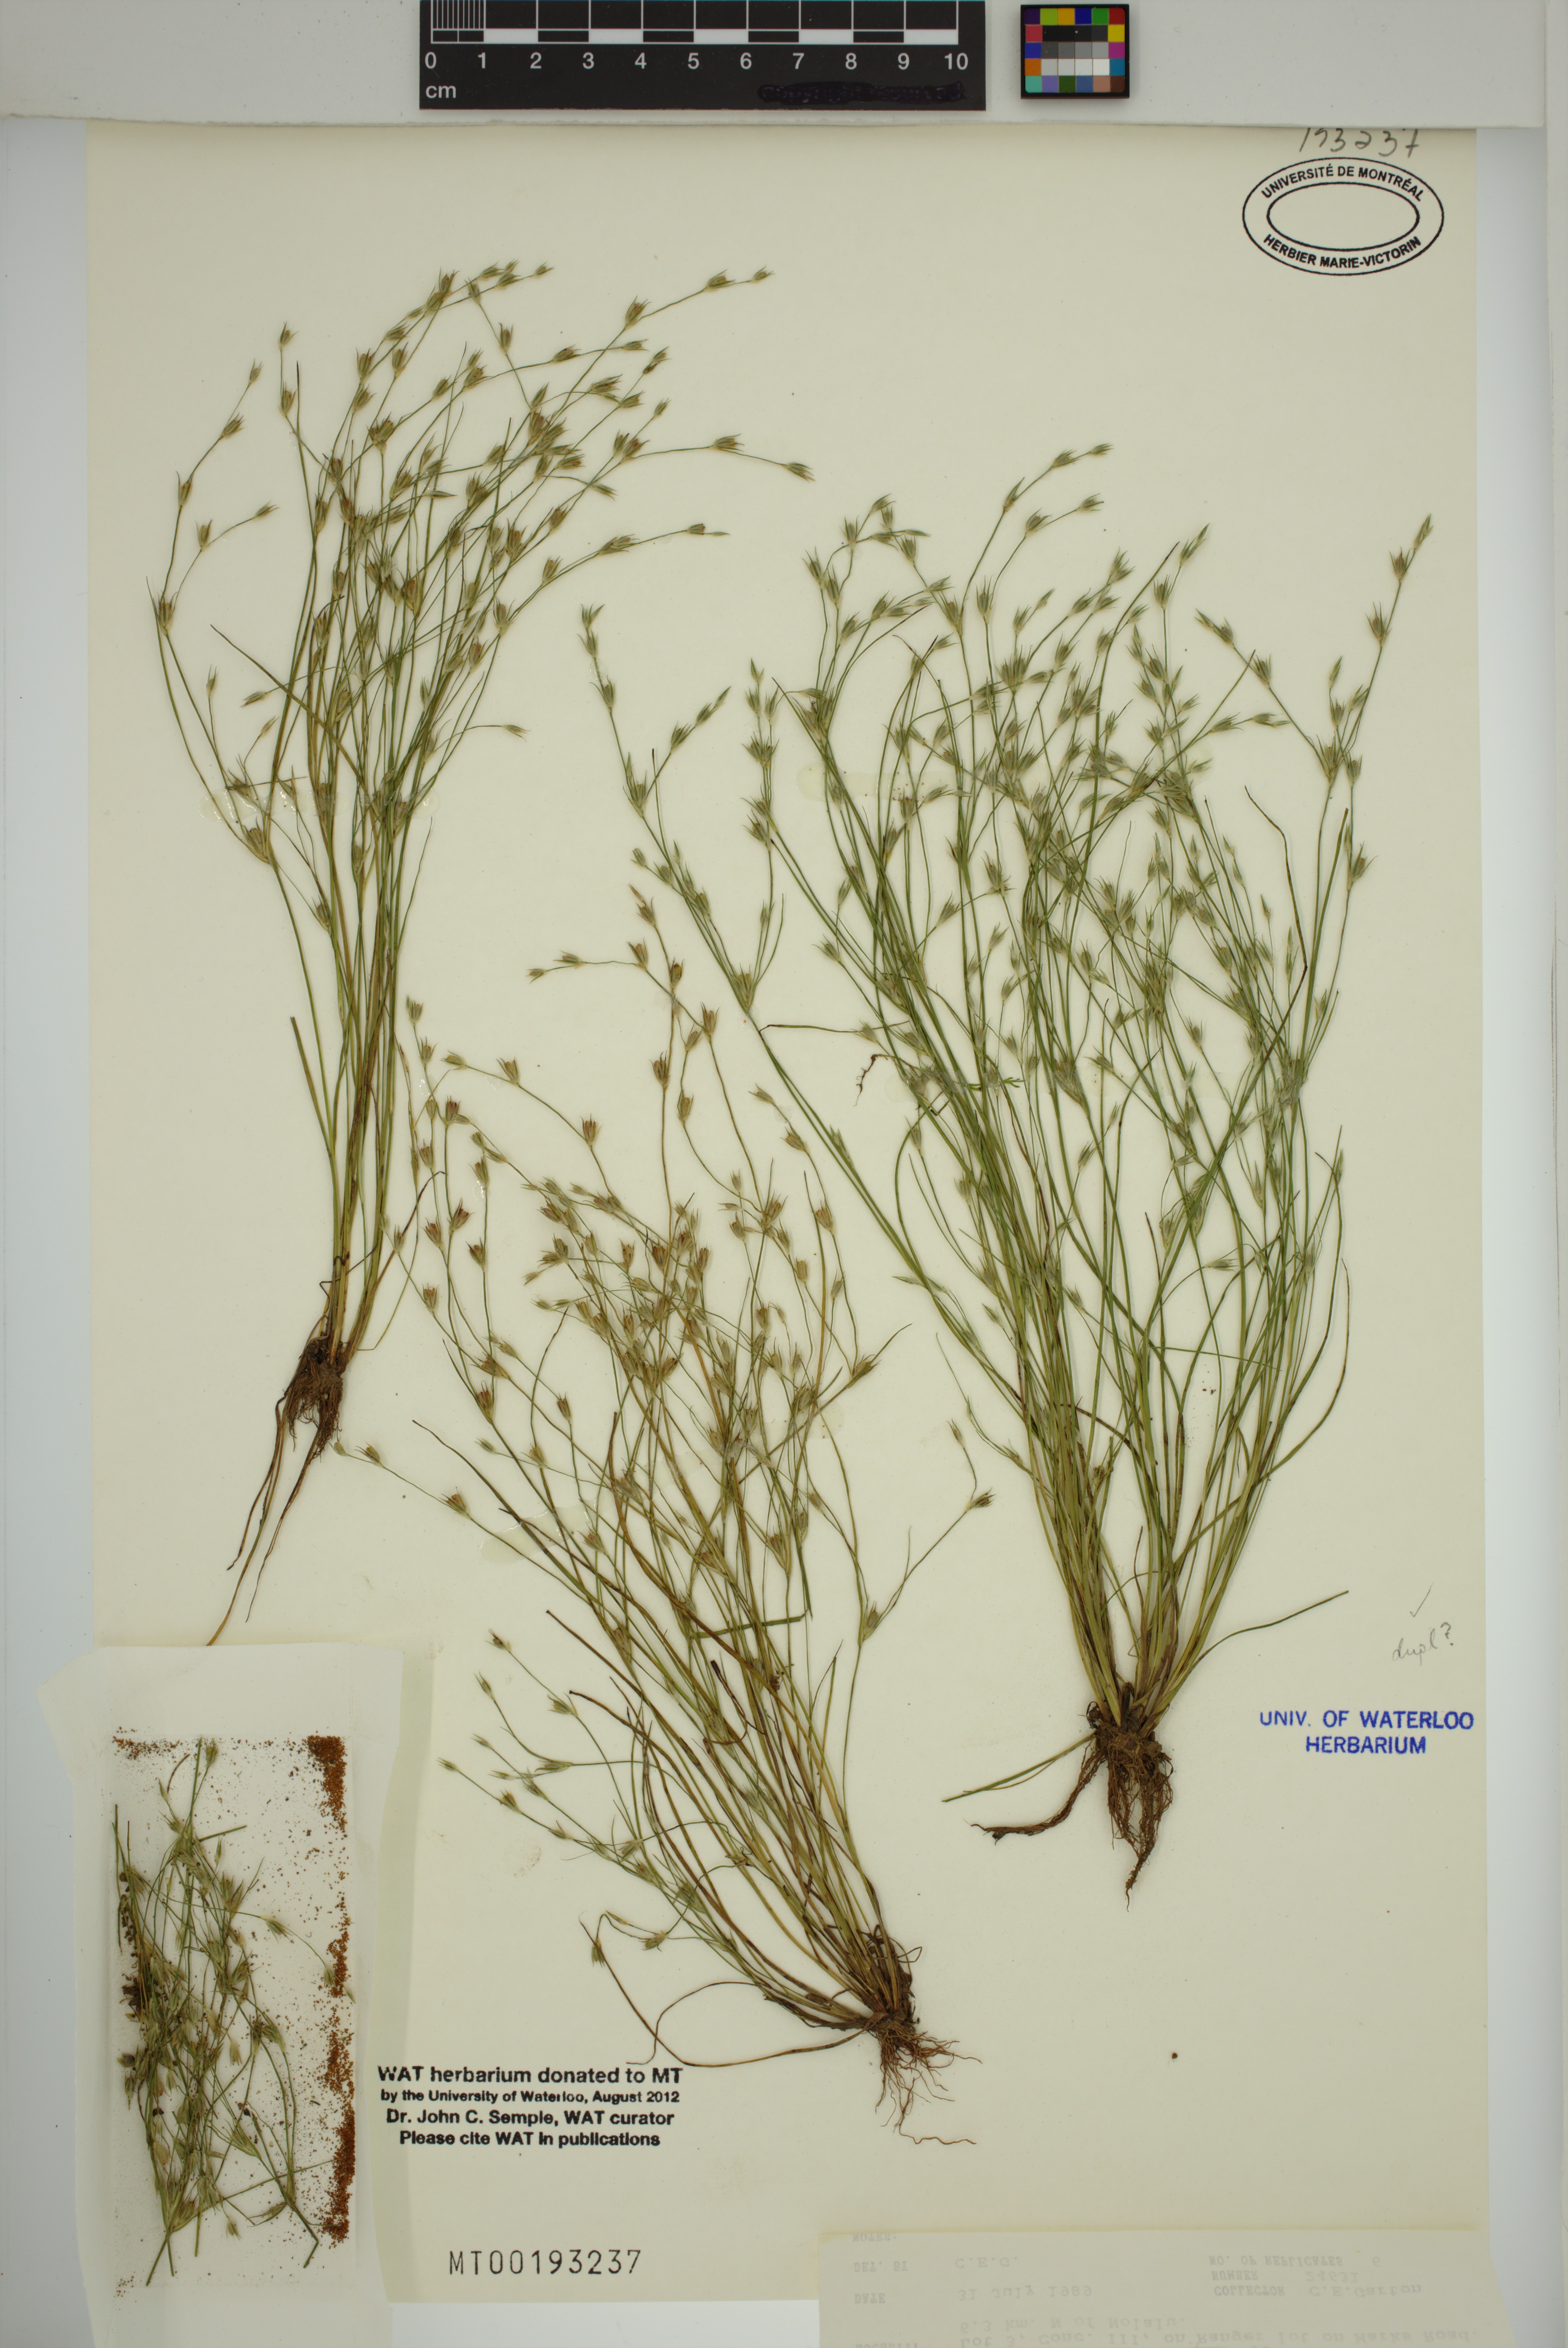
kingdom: Plantae
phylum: Tracheophyta
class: Liliopsida
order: Poales
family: Juncaceae
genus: Juncus
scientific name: Juncus bufonius
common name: Toad rush
